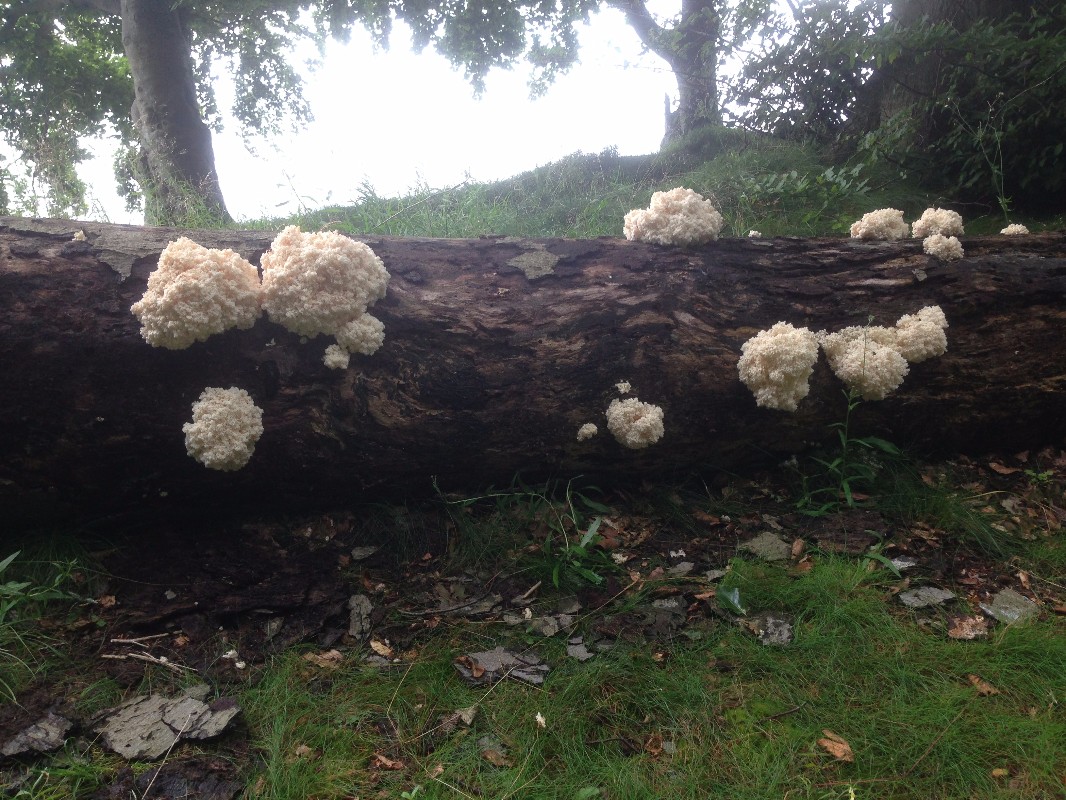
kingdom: Fungi
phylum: Basidiomycota
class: Agaricomycetes
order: Russulales
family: Hericiaceae
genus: Hericium
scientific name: Hericium coralloides
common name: koralpigsvamp
